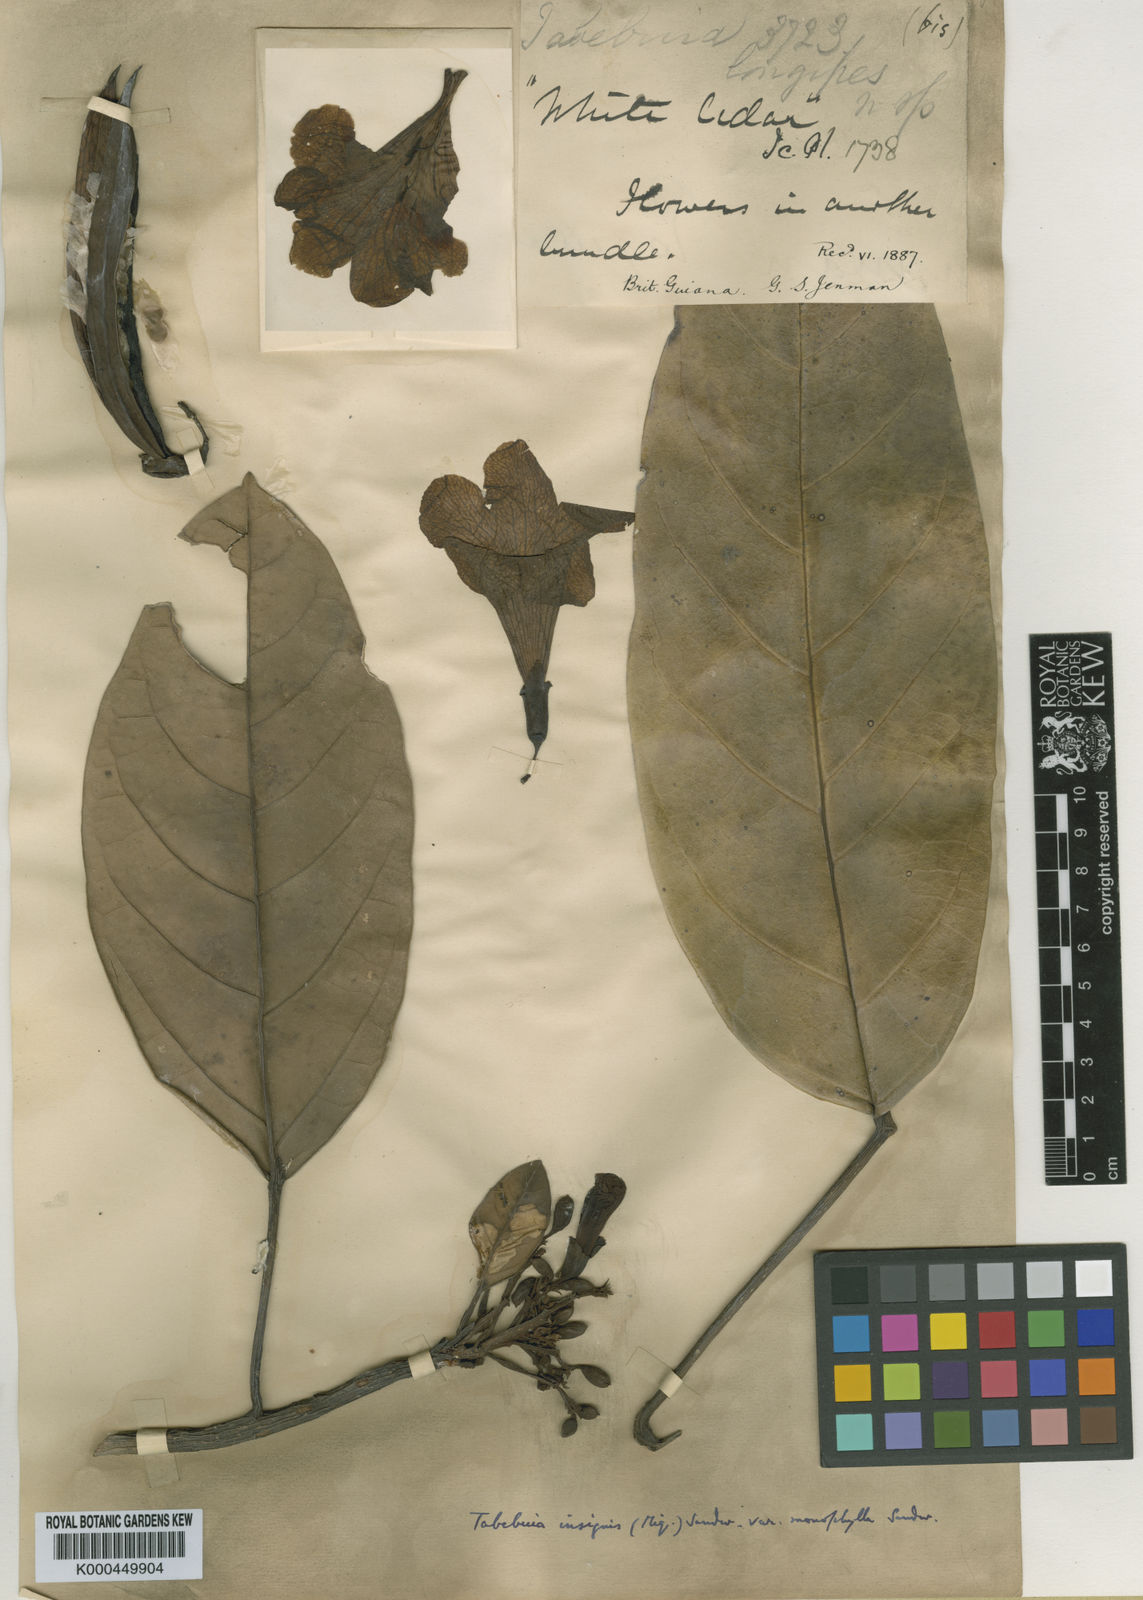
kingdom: Plantae
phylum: Tracheophyta
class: Magnoliopsida
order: Lamiales
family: Bignoniaceae
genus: Tabebuia
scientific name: Tabebuia insignis
